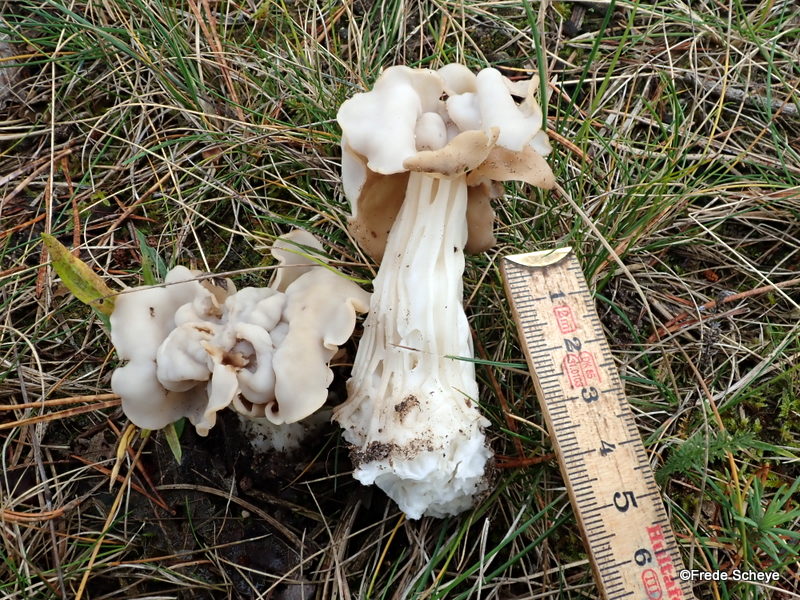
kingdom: Fungi
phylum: Ascomycota
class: Pezizomycetes
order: Pezizales
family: Helvellaceae
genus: Helvella
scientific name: Helvella crispa
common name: kruset foldhat
